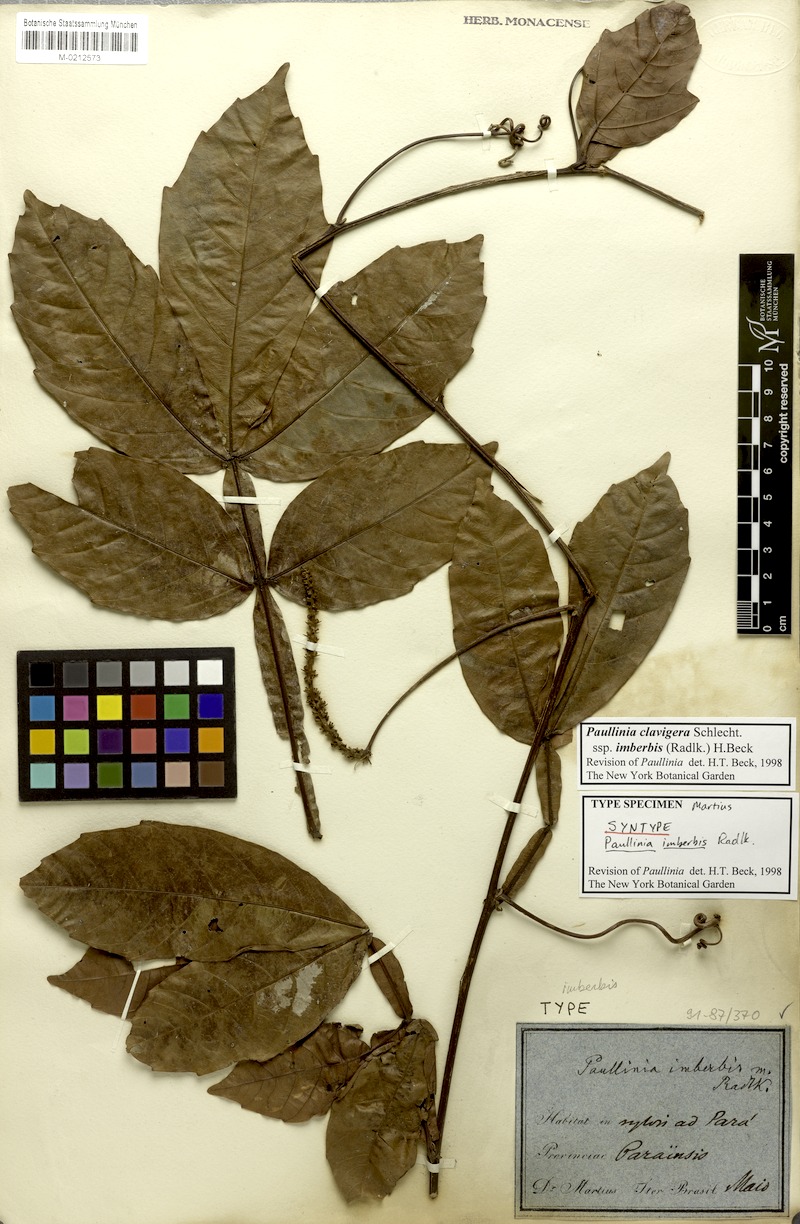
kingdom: Plantae
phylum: Tracheophyta
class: Magnoliopsida
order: Sapindales
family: Sapindaceae
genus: Paullinia
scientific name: Paullinia clavigera
